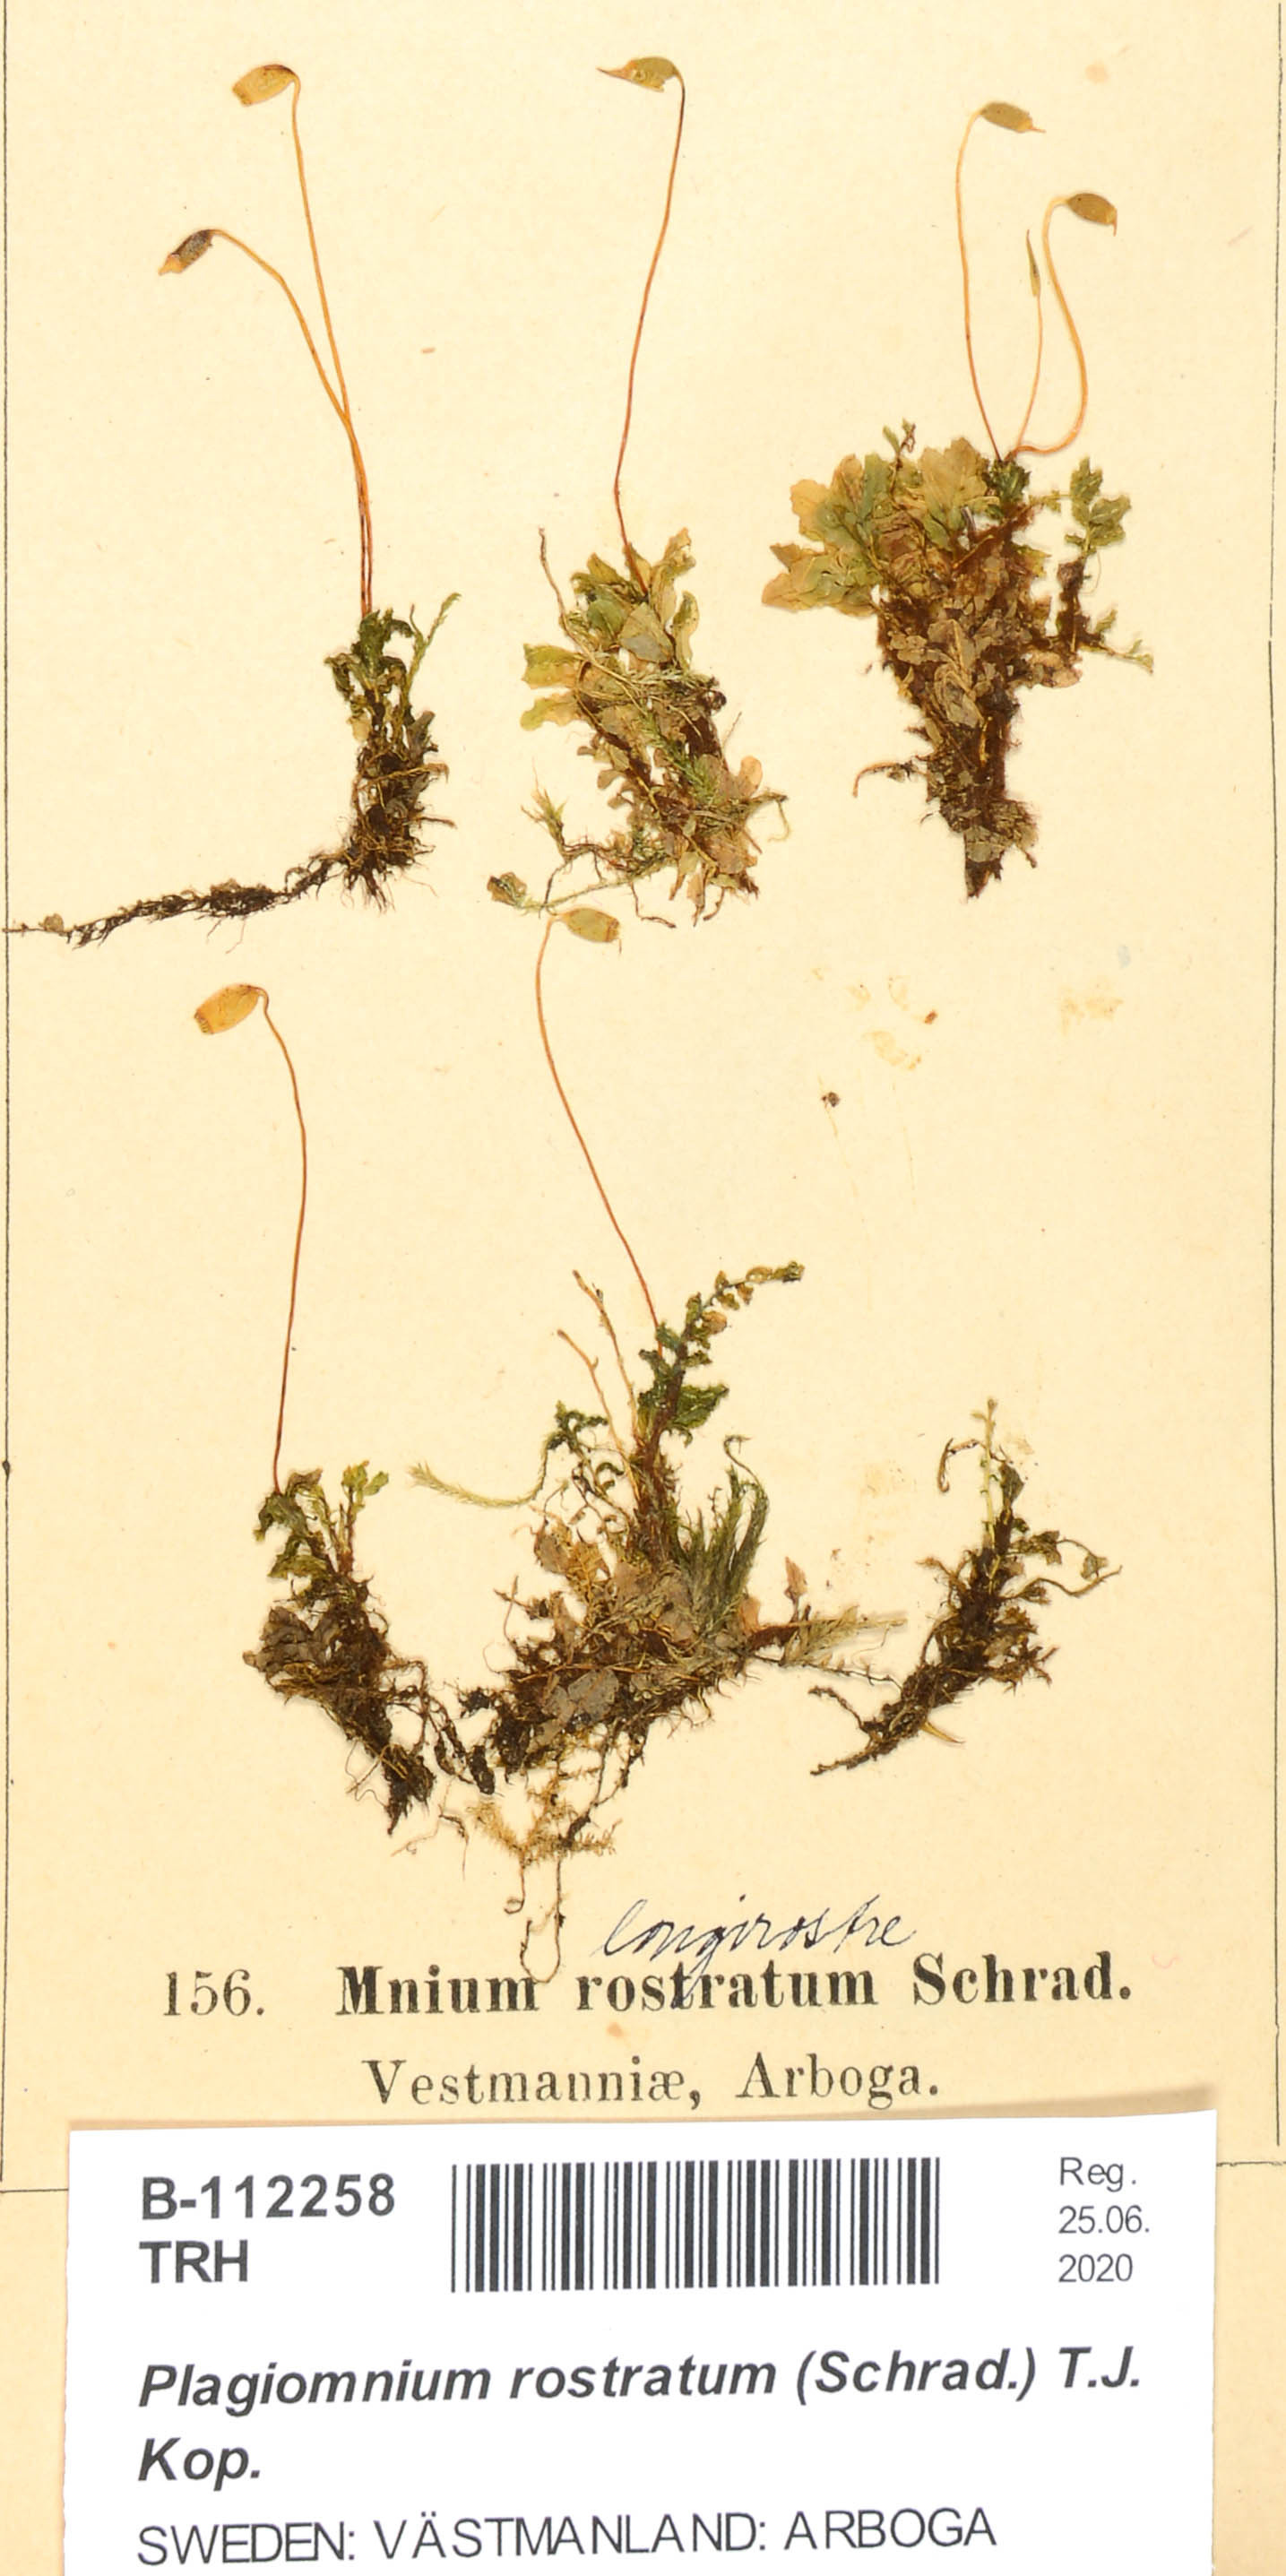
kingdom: Plantae
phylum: Bryophyta
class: Bryopsida
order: Bryales
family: Mniaceae
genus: Plagiomnium
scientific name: Plagiomnium rostratum
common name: Long-beaked leafy moss
